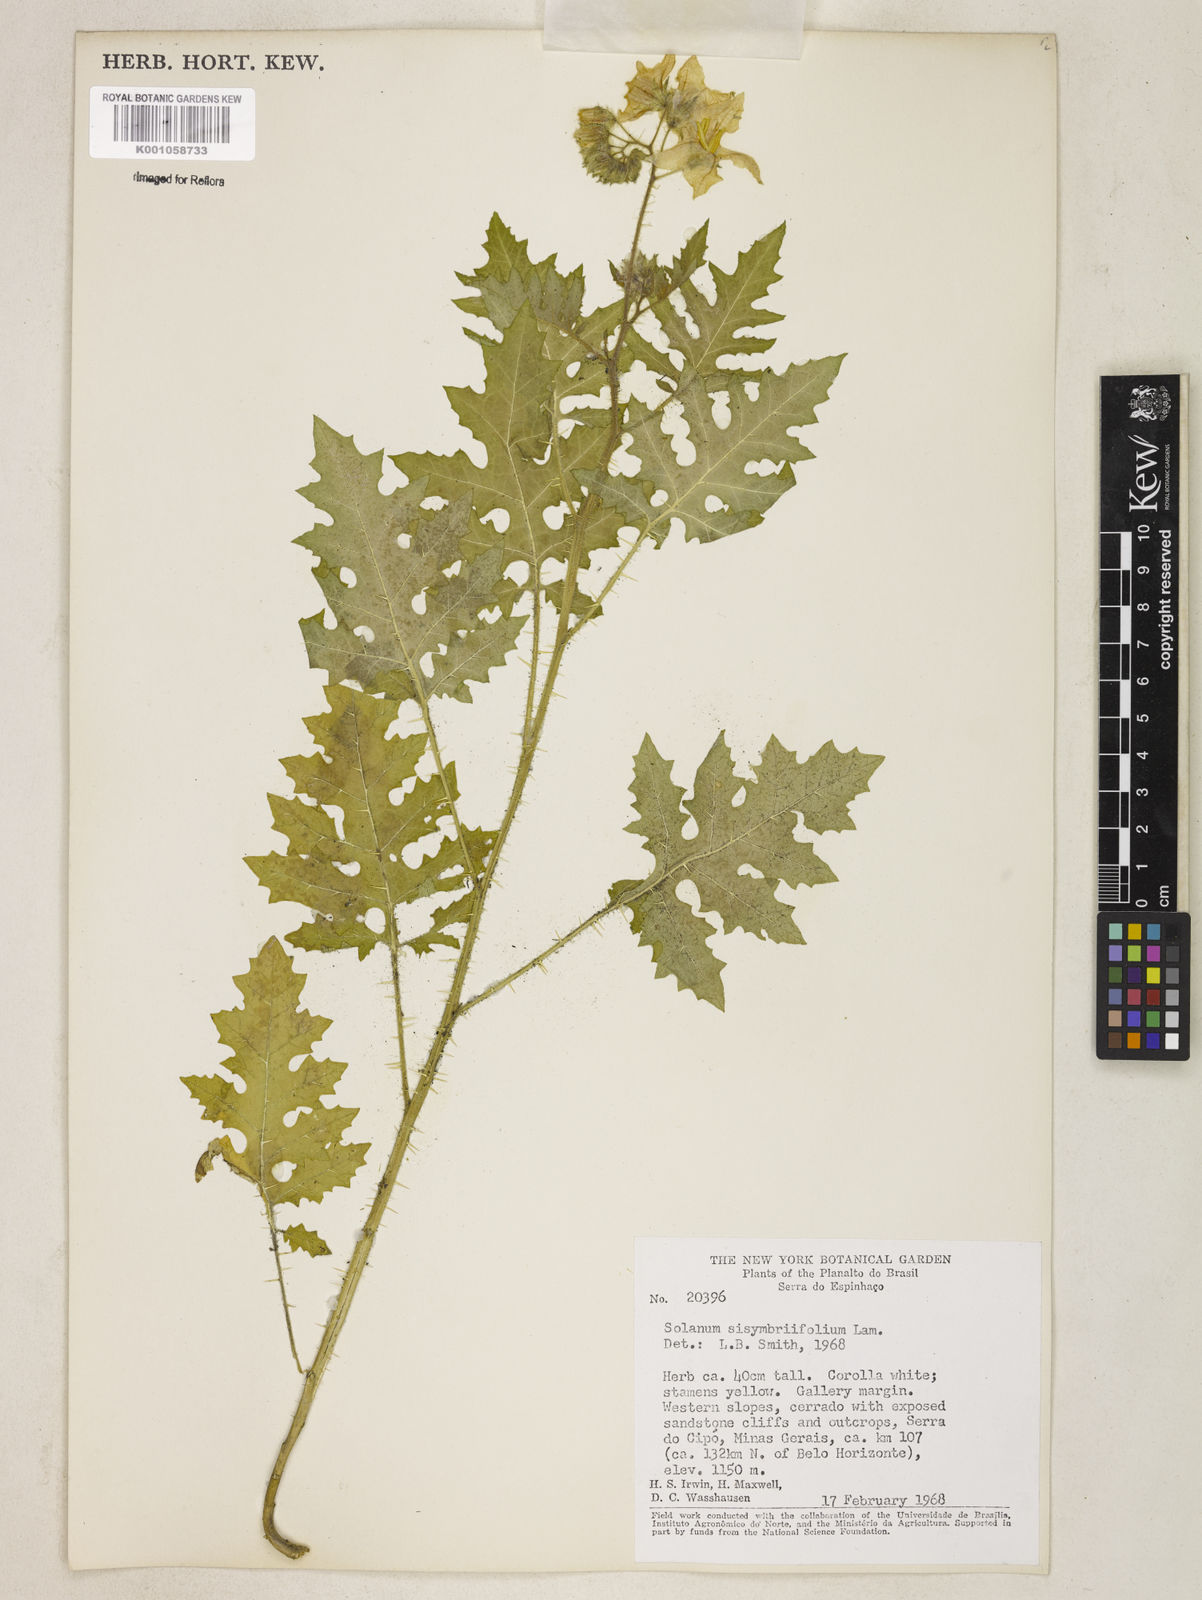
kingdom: Plantae
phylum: Tracheophyta
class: Magnoliopsida
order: Solanales
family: Solanaceae
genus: Solanum
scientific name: Solanum sisymbriifolium
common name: Red buffalo-bur
